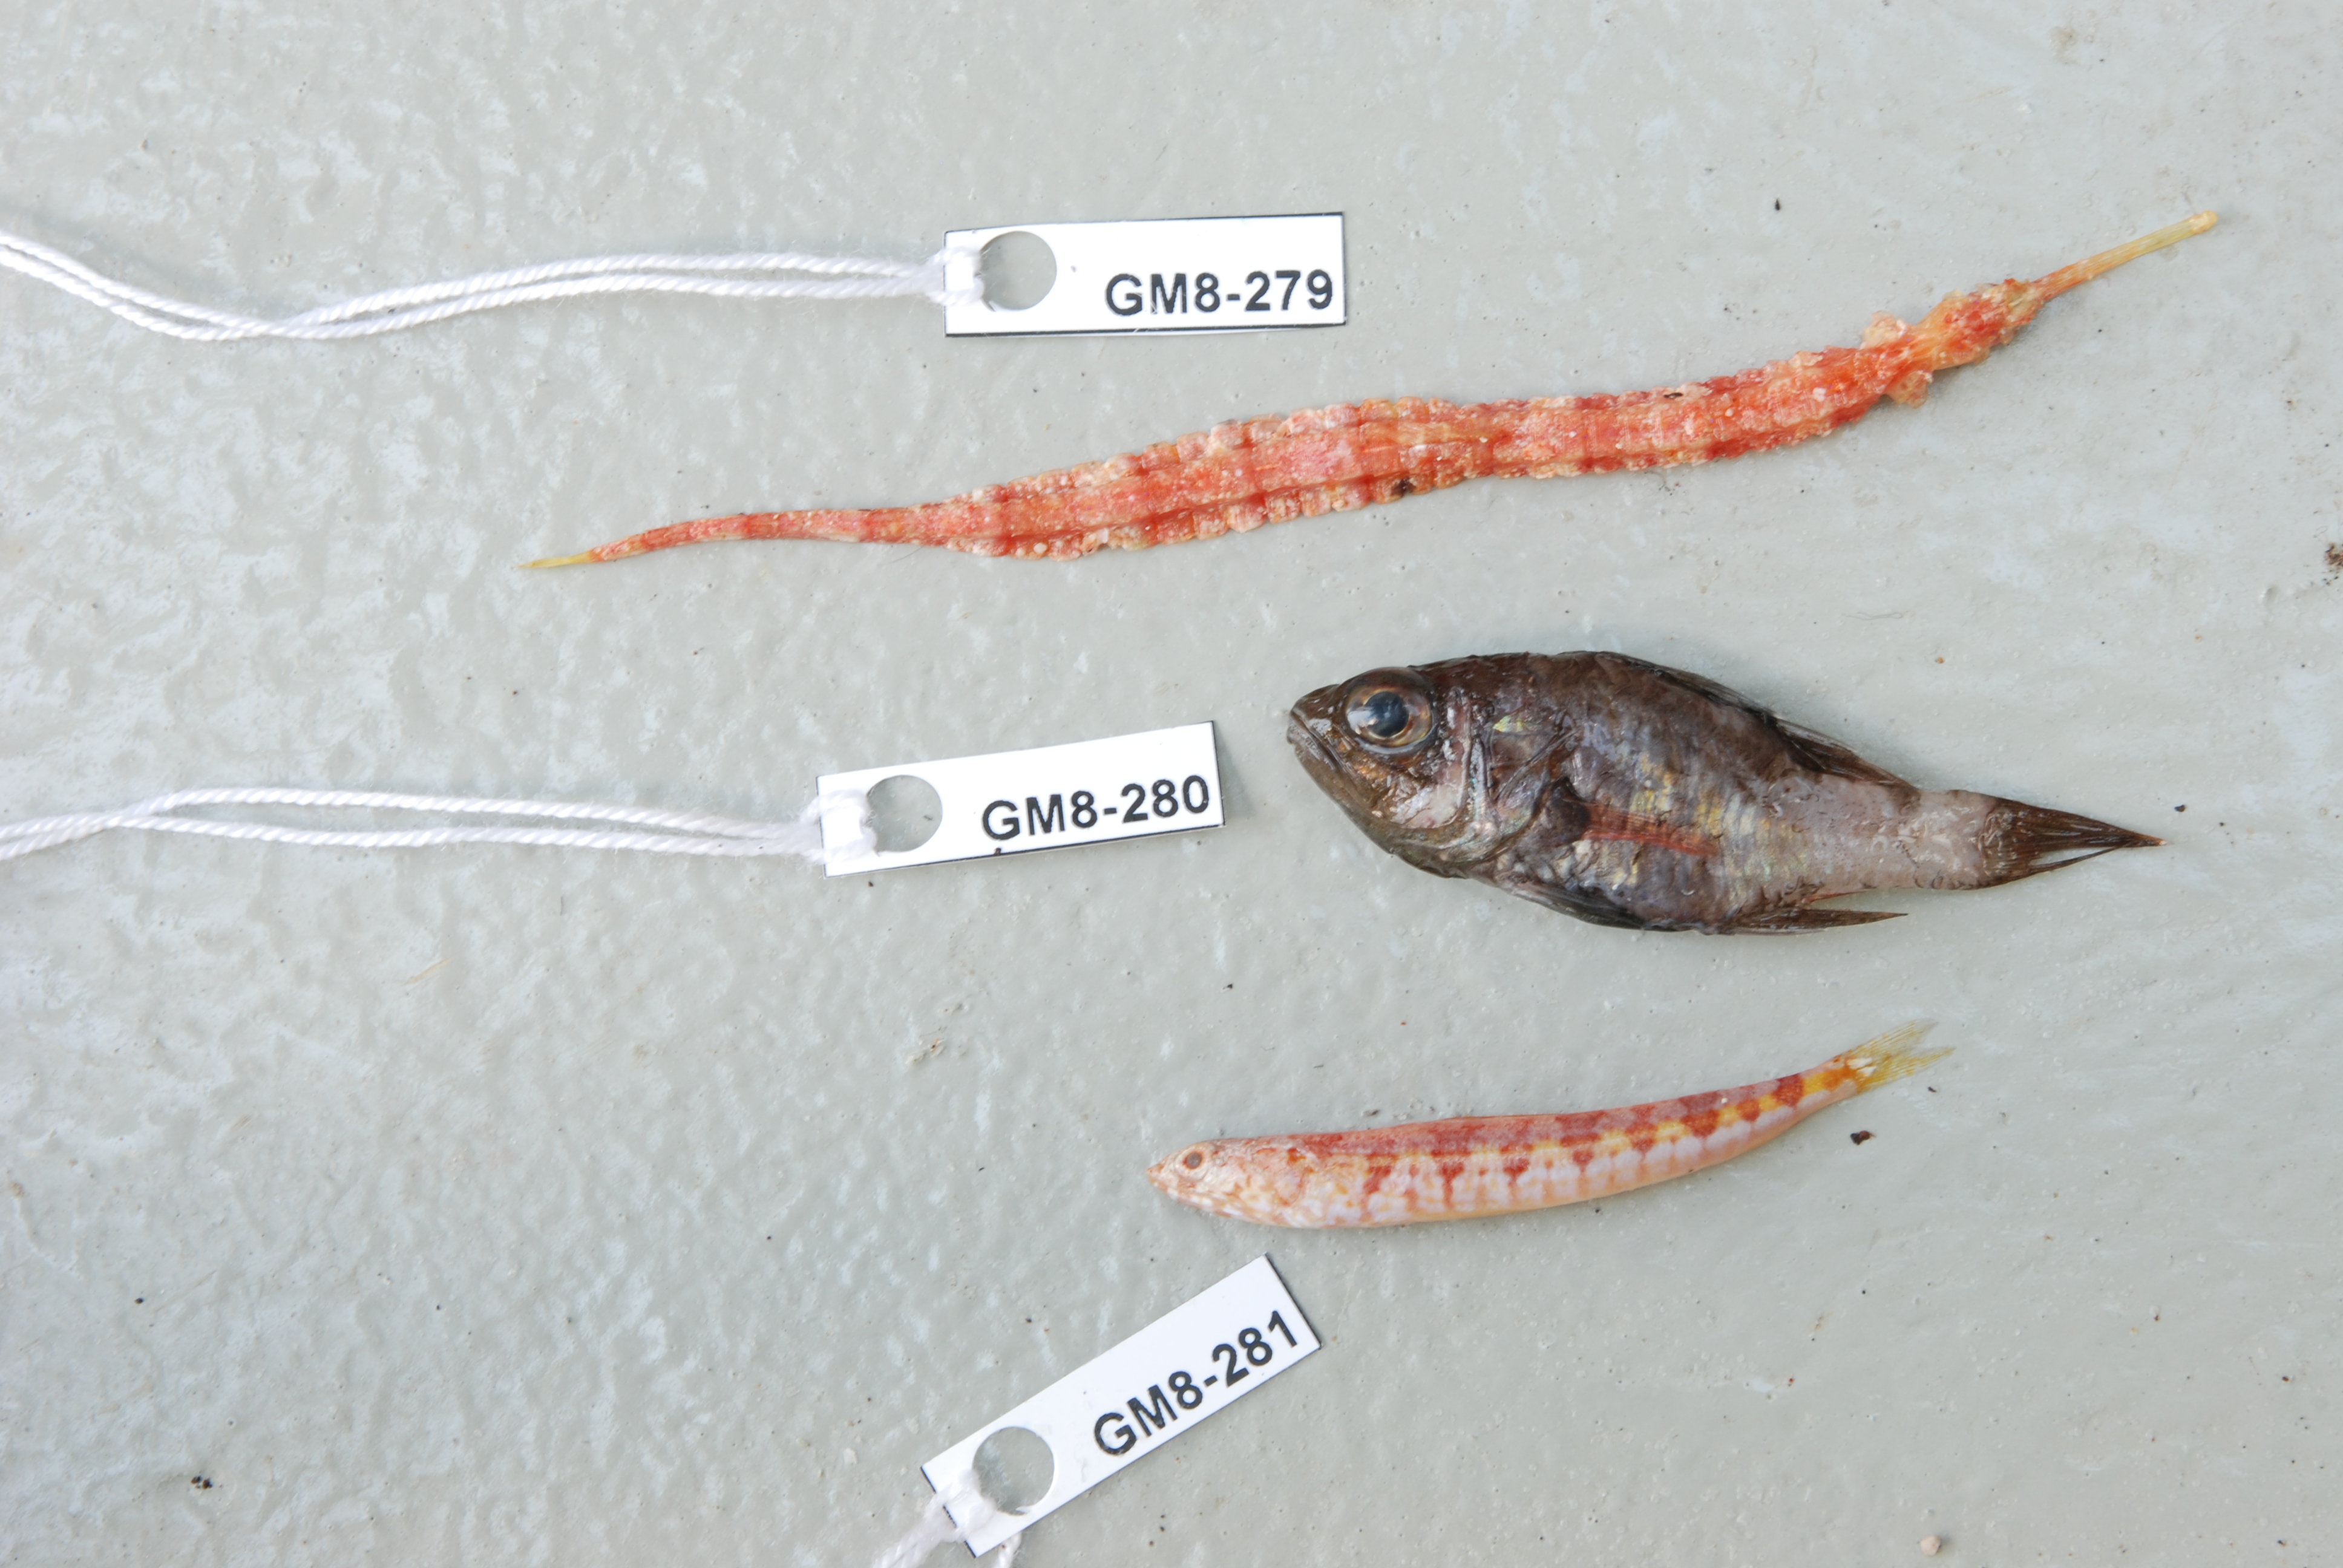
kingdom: Animalia
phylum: Chordata
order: Perciformes
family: Apogonidae
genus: Apogon
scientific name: Apogon
